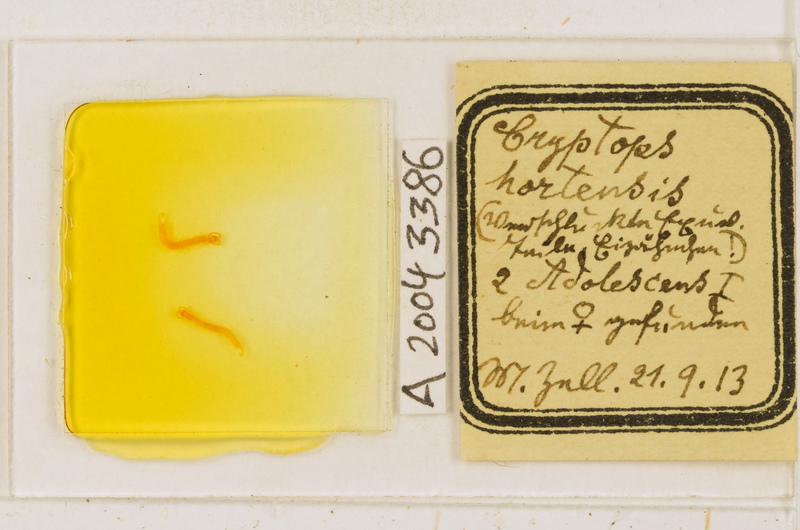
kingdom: Animalia
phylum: Arthropoda
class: Chilopoda
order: Scolopendromorpha
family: Cryptopidae
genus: Cryptops
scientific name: Cryptops hortensis
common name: Centipede
